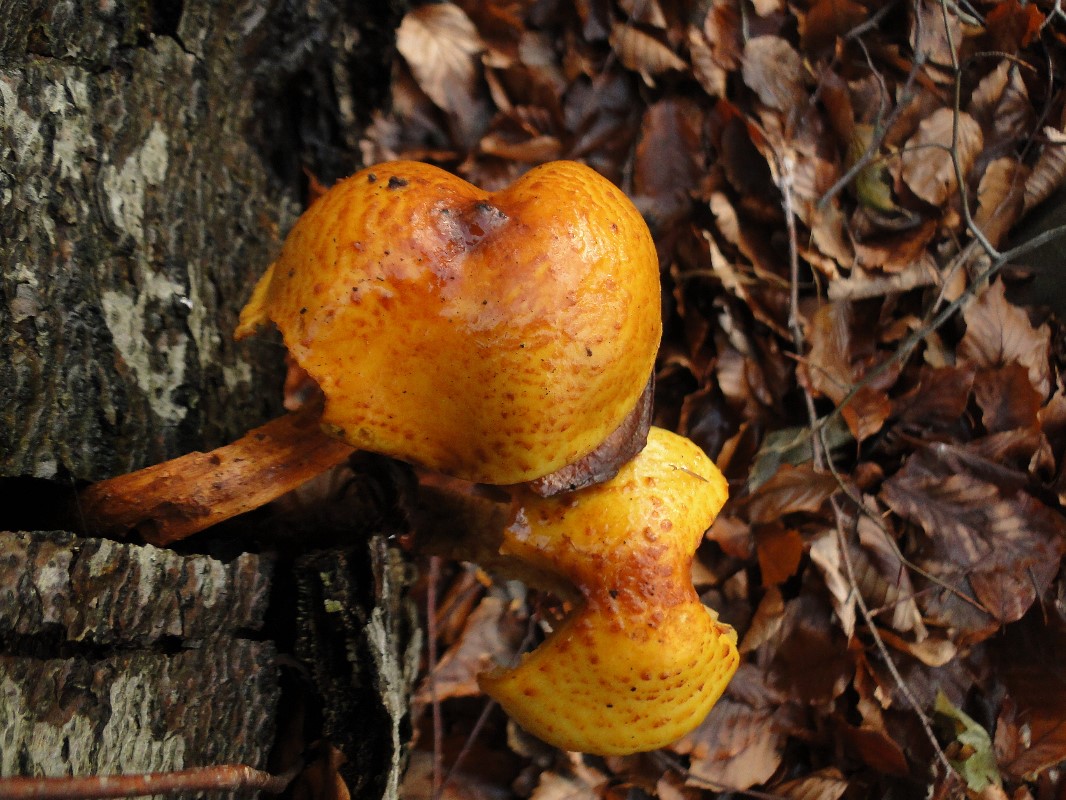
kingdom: Fungi
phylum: Basidiomycota
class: Agaricomycetes
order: Agaricales
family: Strophariaceae
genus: Pholiota
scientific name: Pholiota adiposa
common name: højtsiddende skælhat
